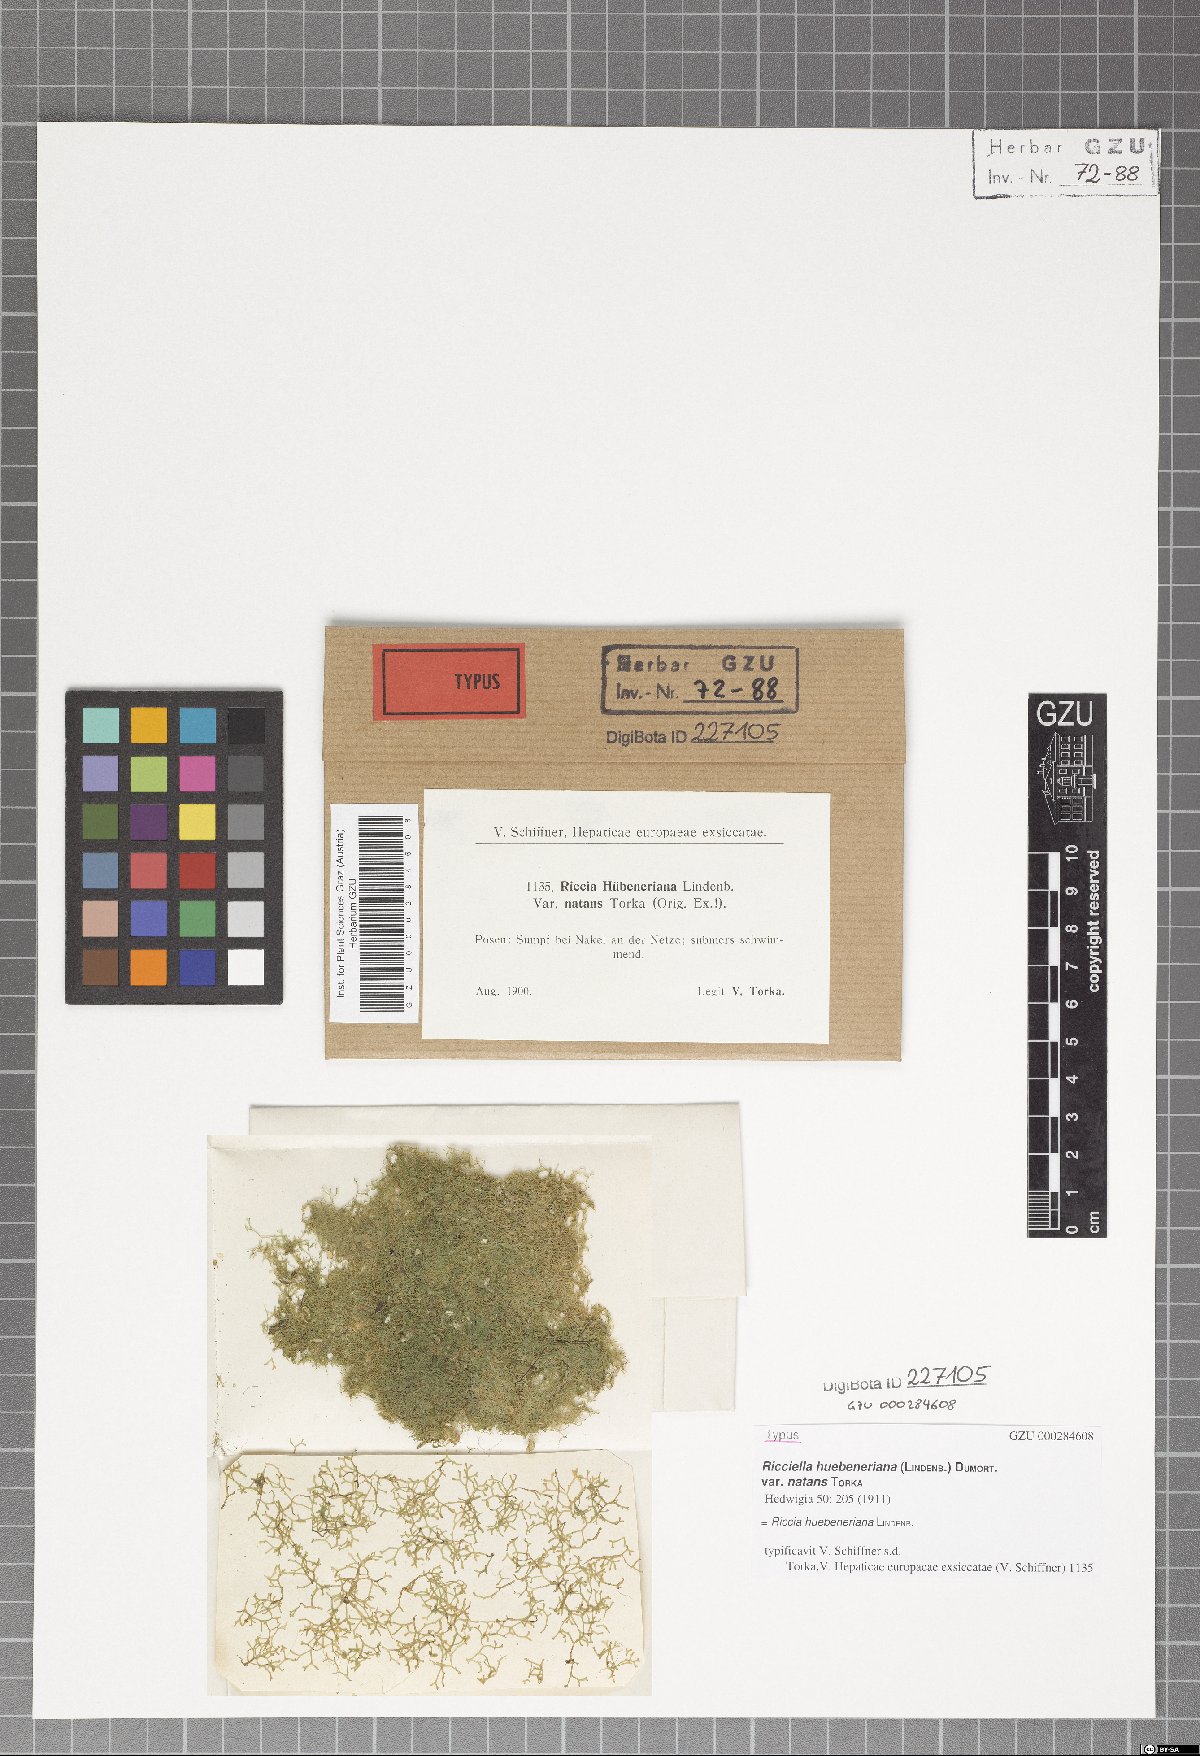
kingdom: Plantae
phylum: Marchantiophyta
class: Marchantiopsida
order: Marchantiales
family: Ricciaceae
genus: Riccia
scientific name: Riccia rhenana
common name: Pond crystalwort
